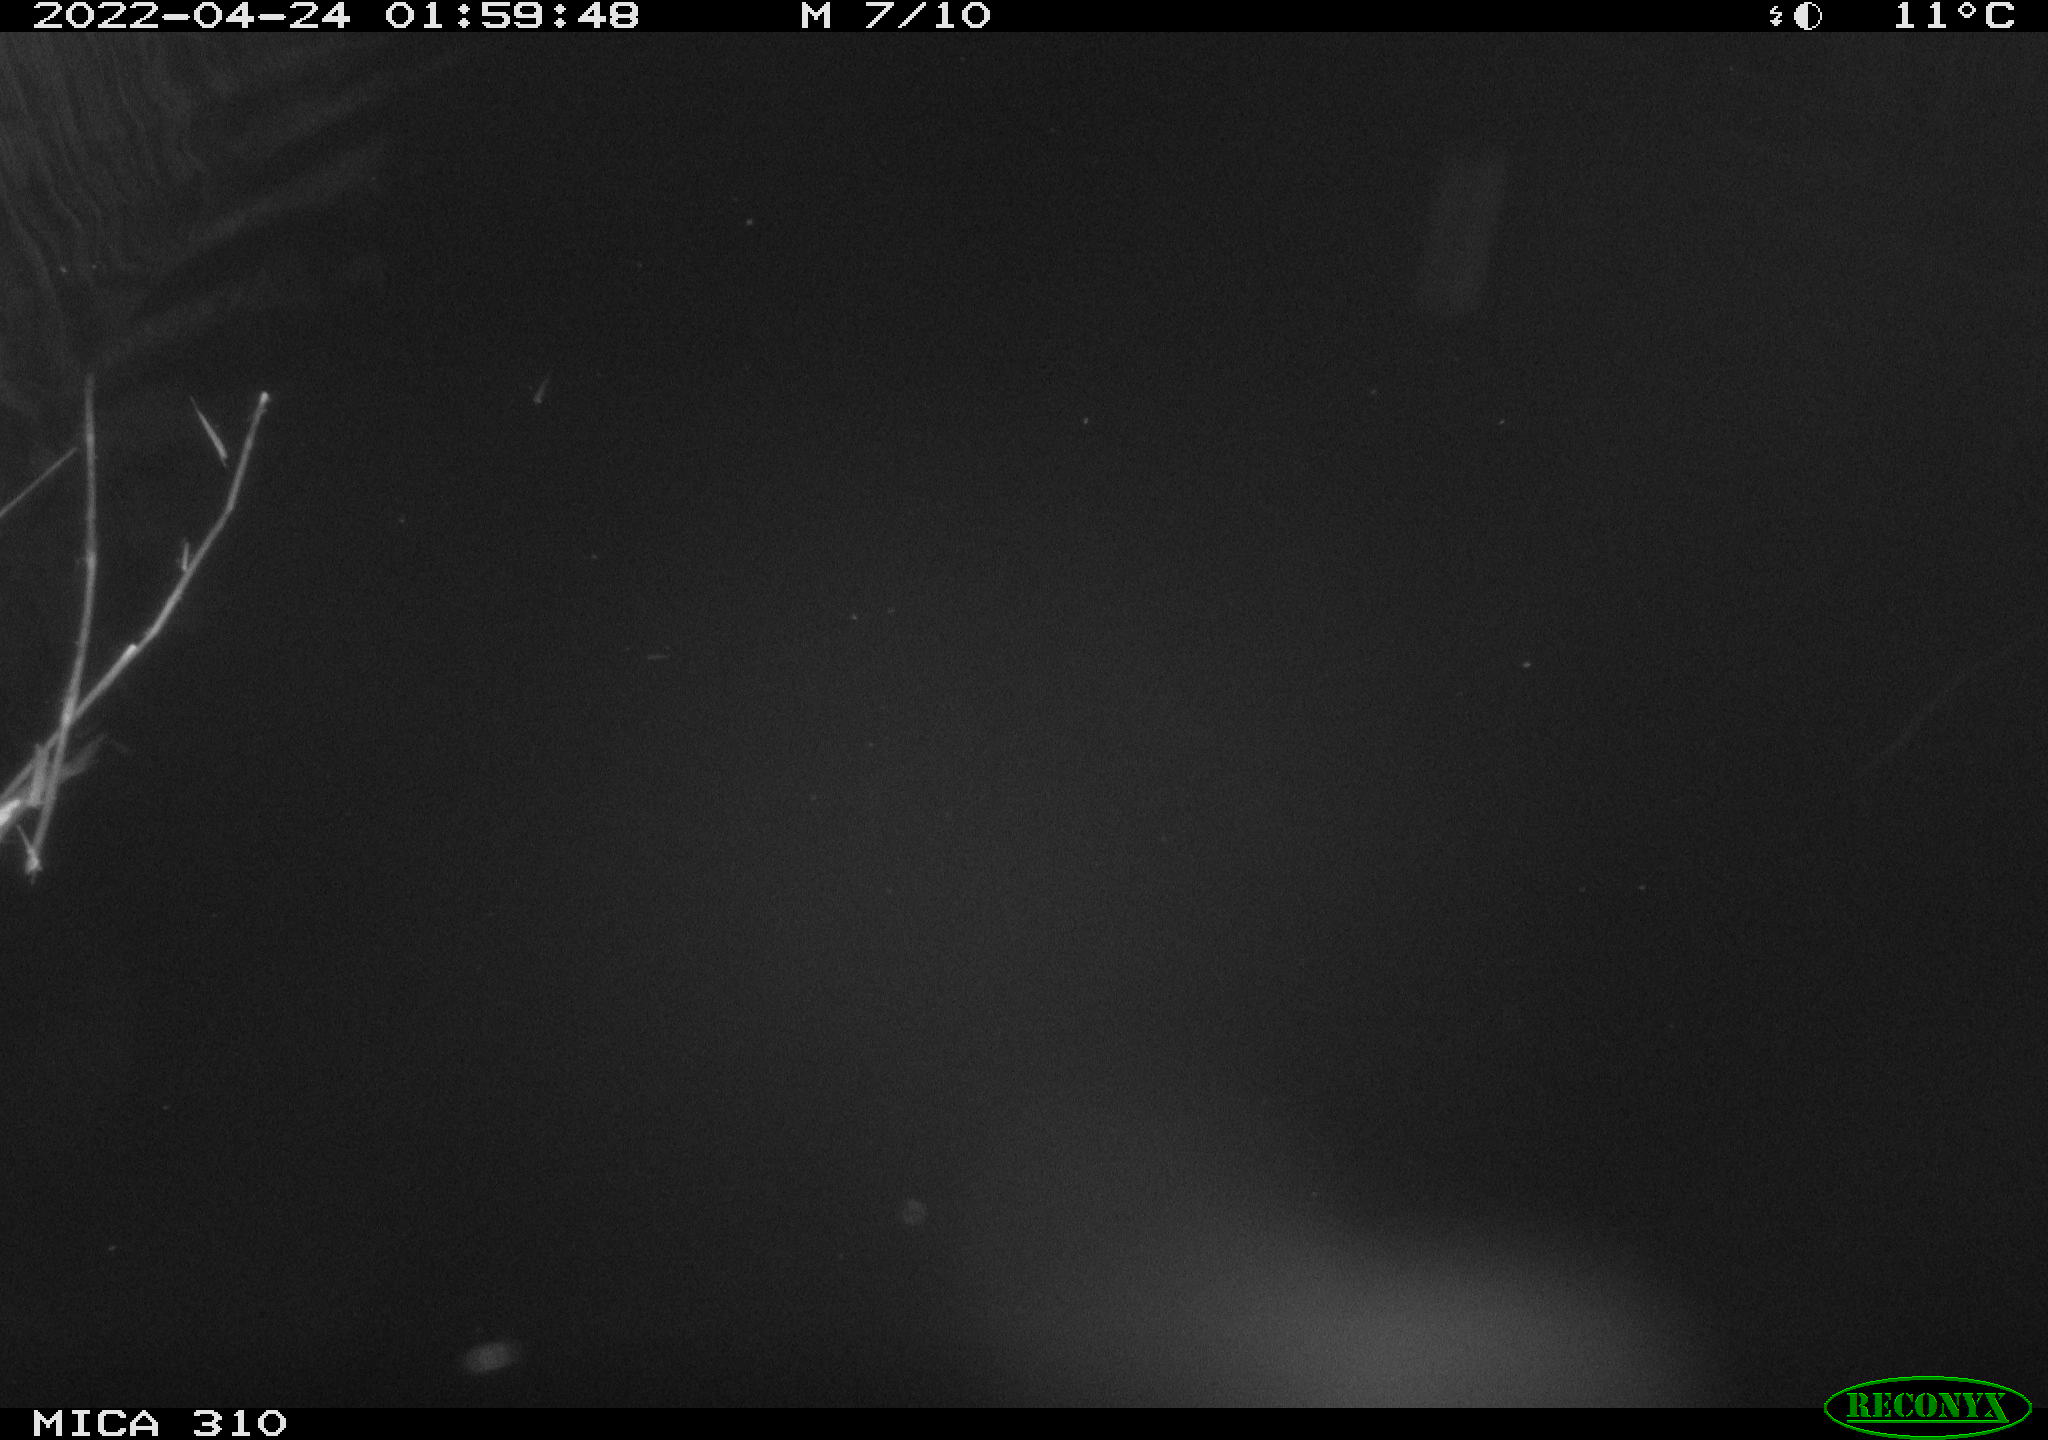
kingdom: Animalia
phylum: Chordata
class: Aves
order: Anseriformes
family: Anatidae
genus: Anas
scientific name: Anas platyrhynchos
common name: Mallard
